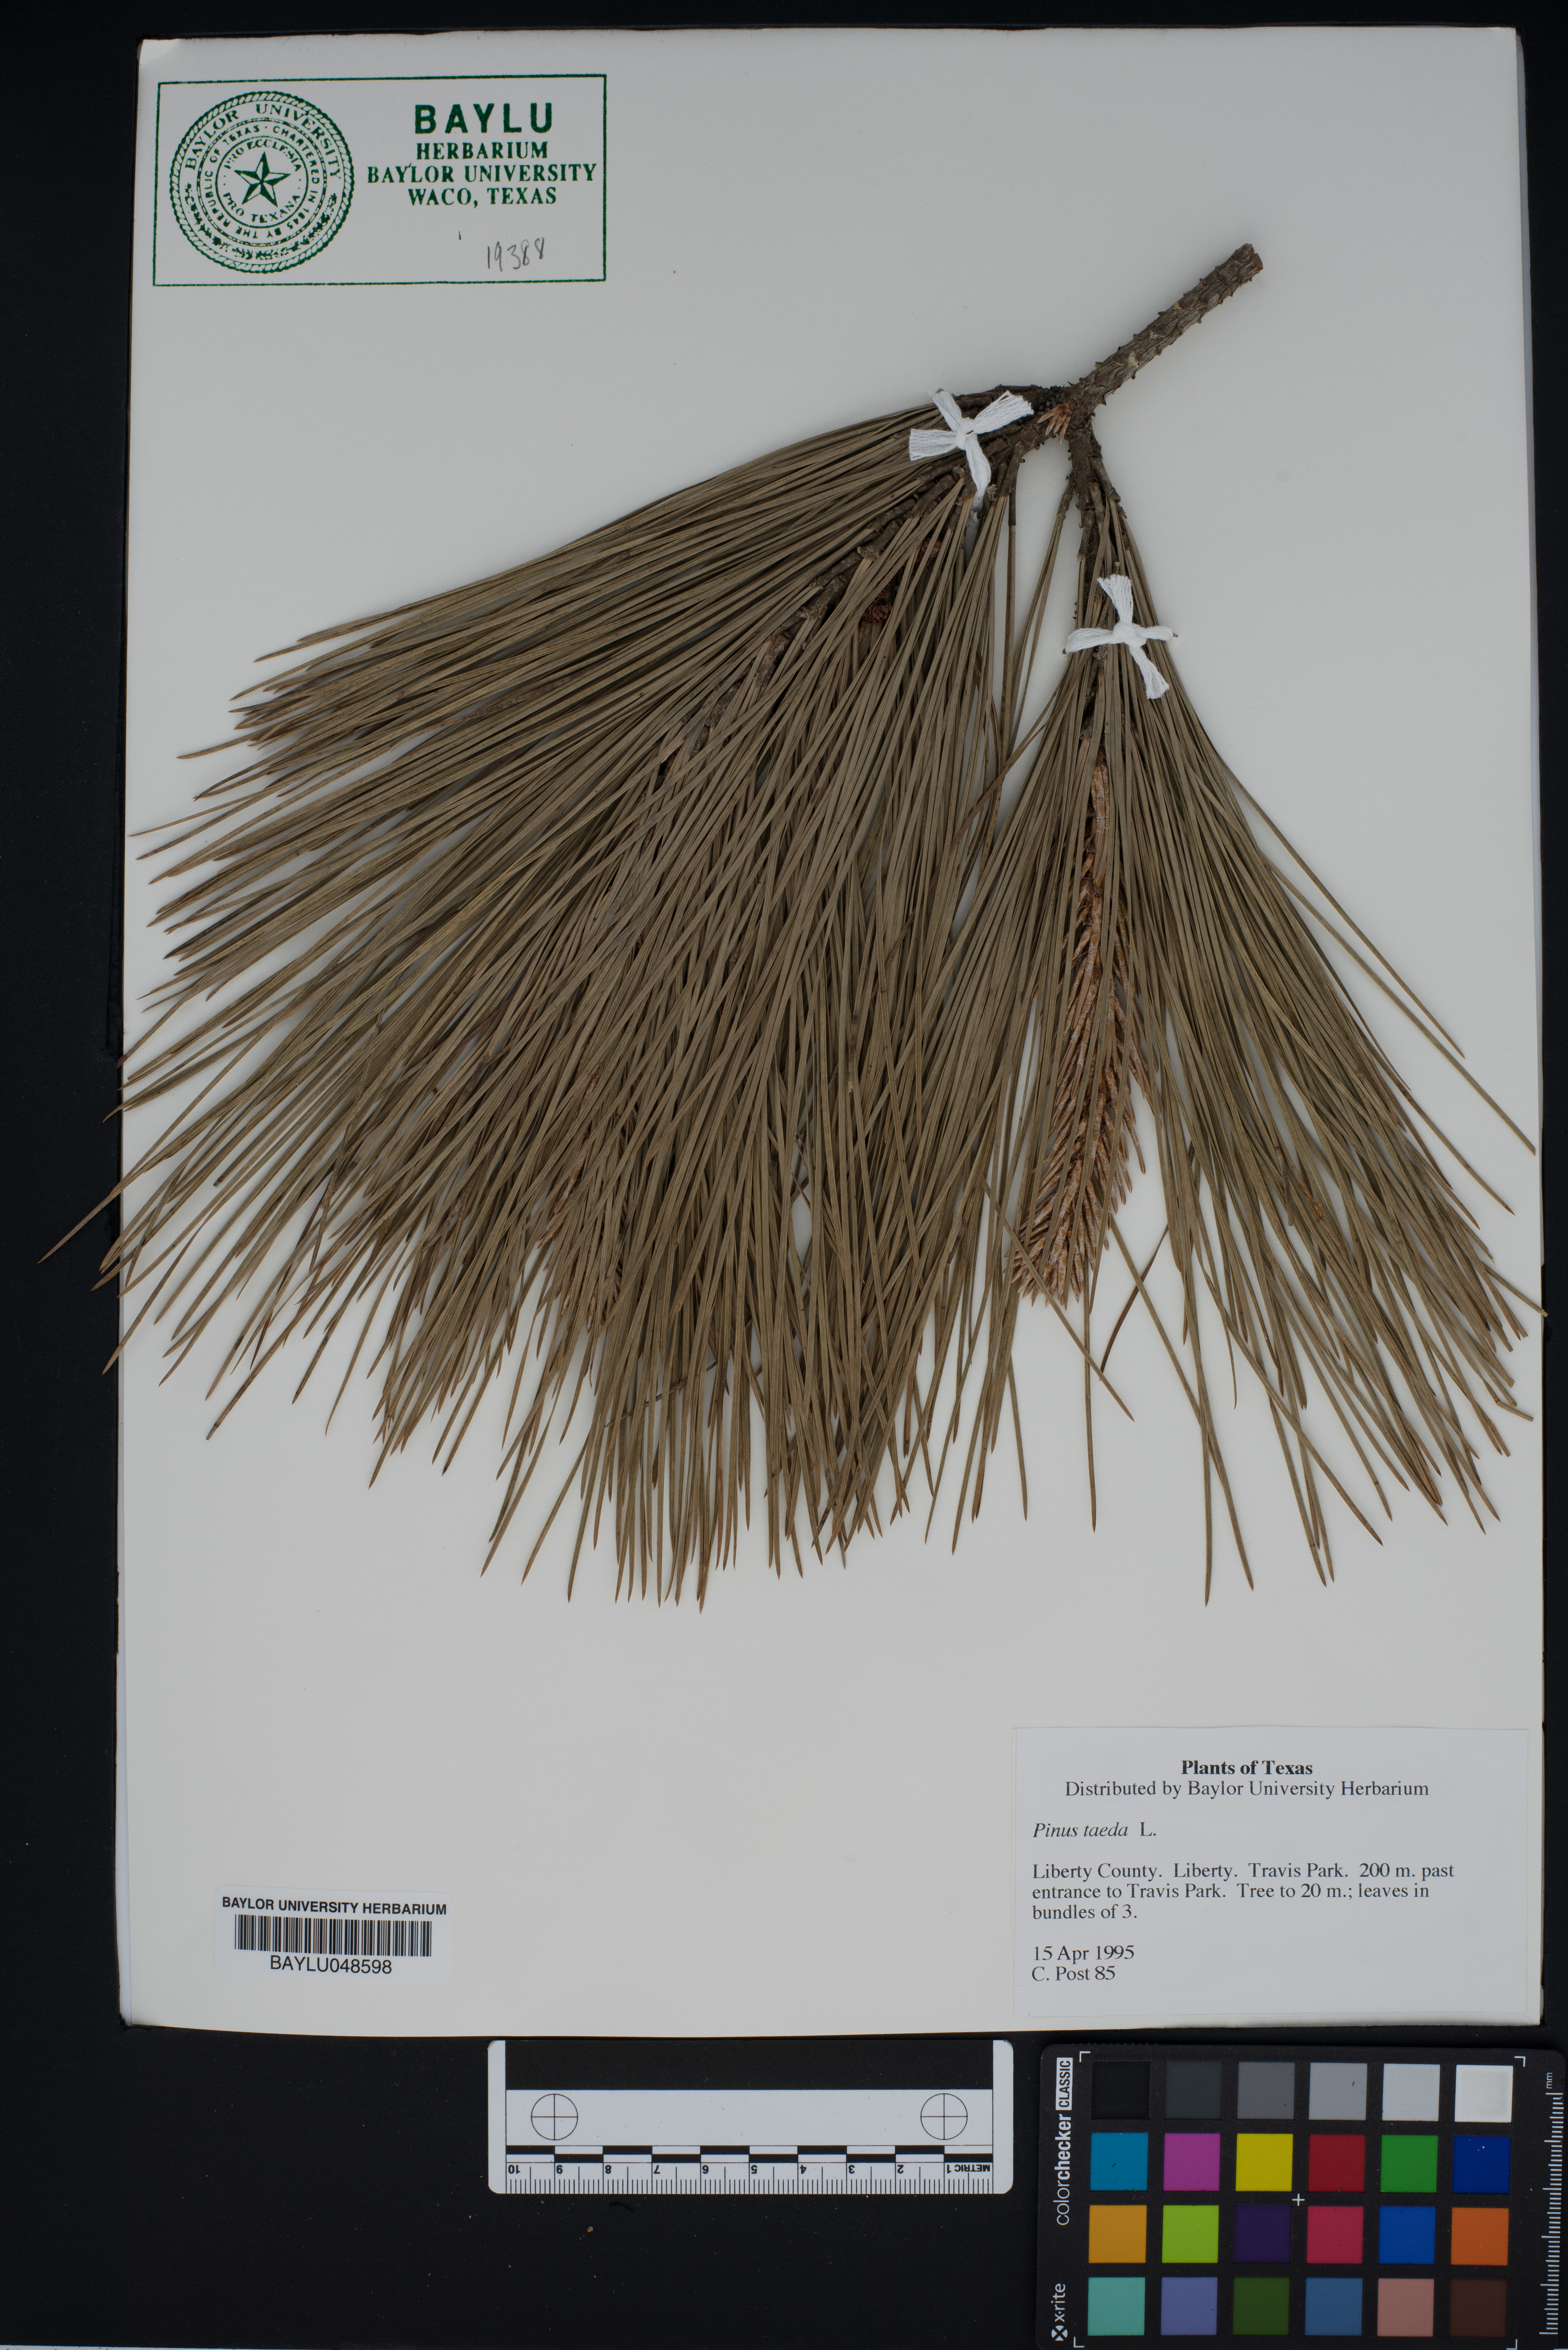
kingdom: Plantae
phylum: Tracheophyta
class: Pinopsida
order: Pinales
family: Pinaceae
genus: Pinus
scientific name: Pinus taeda
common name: Loblolly pine
